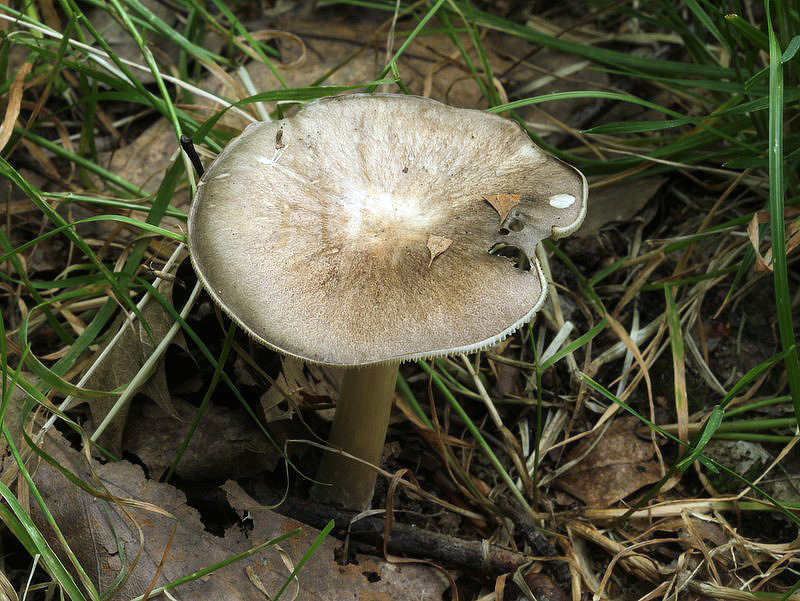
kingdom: Fungi
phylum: Basidiomycota
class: Agaricomycetes
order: Agaricales
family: Tricholomataceae
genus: Megacollybia
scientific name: Megacollybia platyphylla
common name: bredbladet væbnerhat
